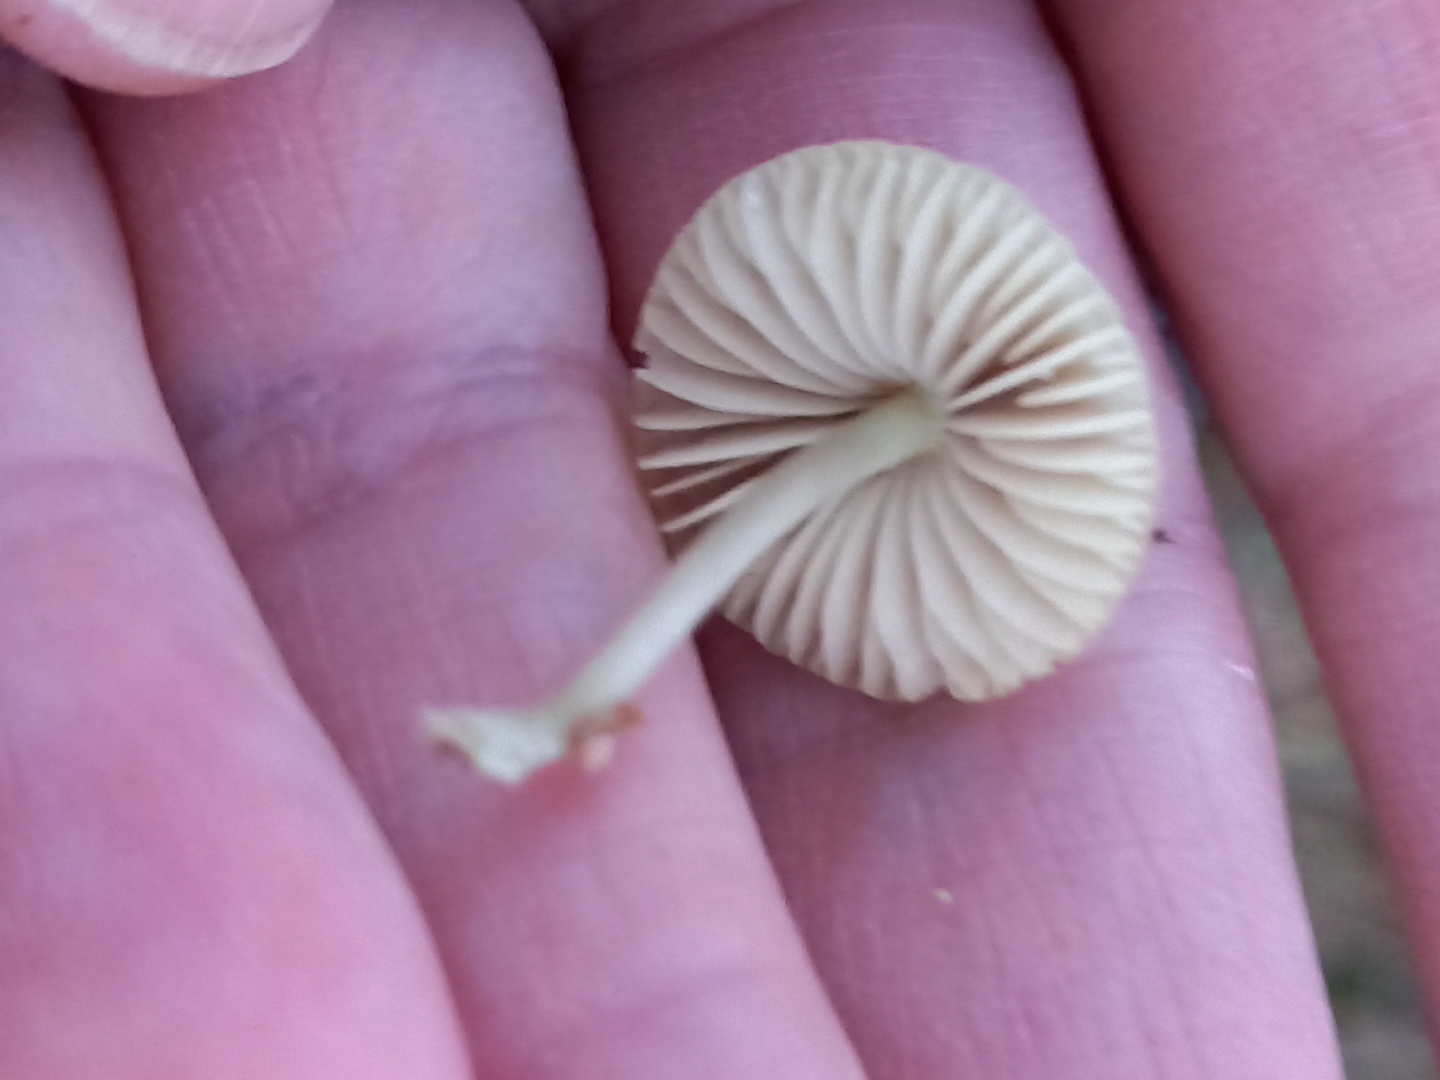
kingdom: Fungi
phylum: Basidiomycota
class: Agaricomycetes
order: Agaricales
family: Mycenaceae
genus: Mycena
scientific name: Mycena chlorantha
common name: klit-huesvamp
